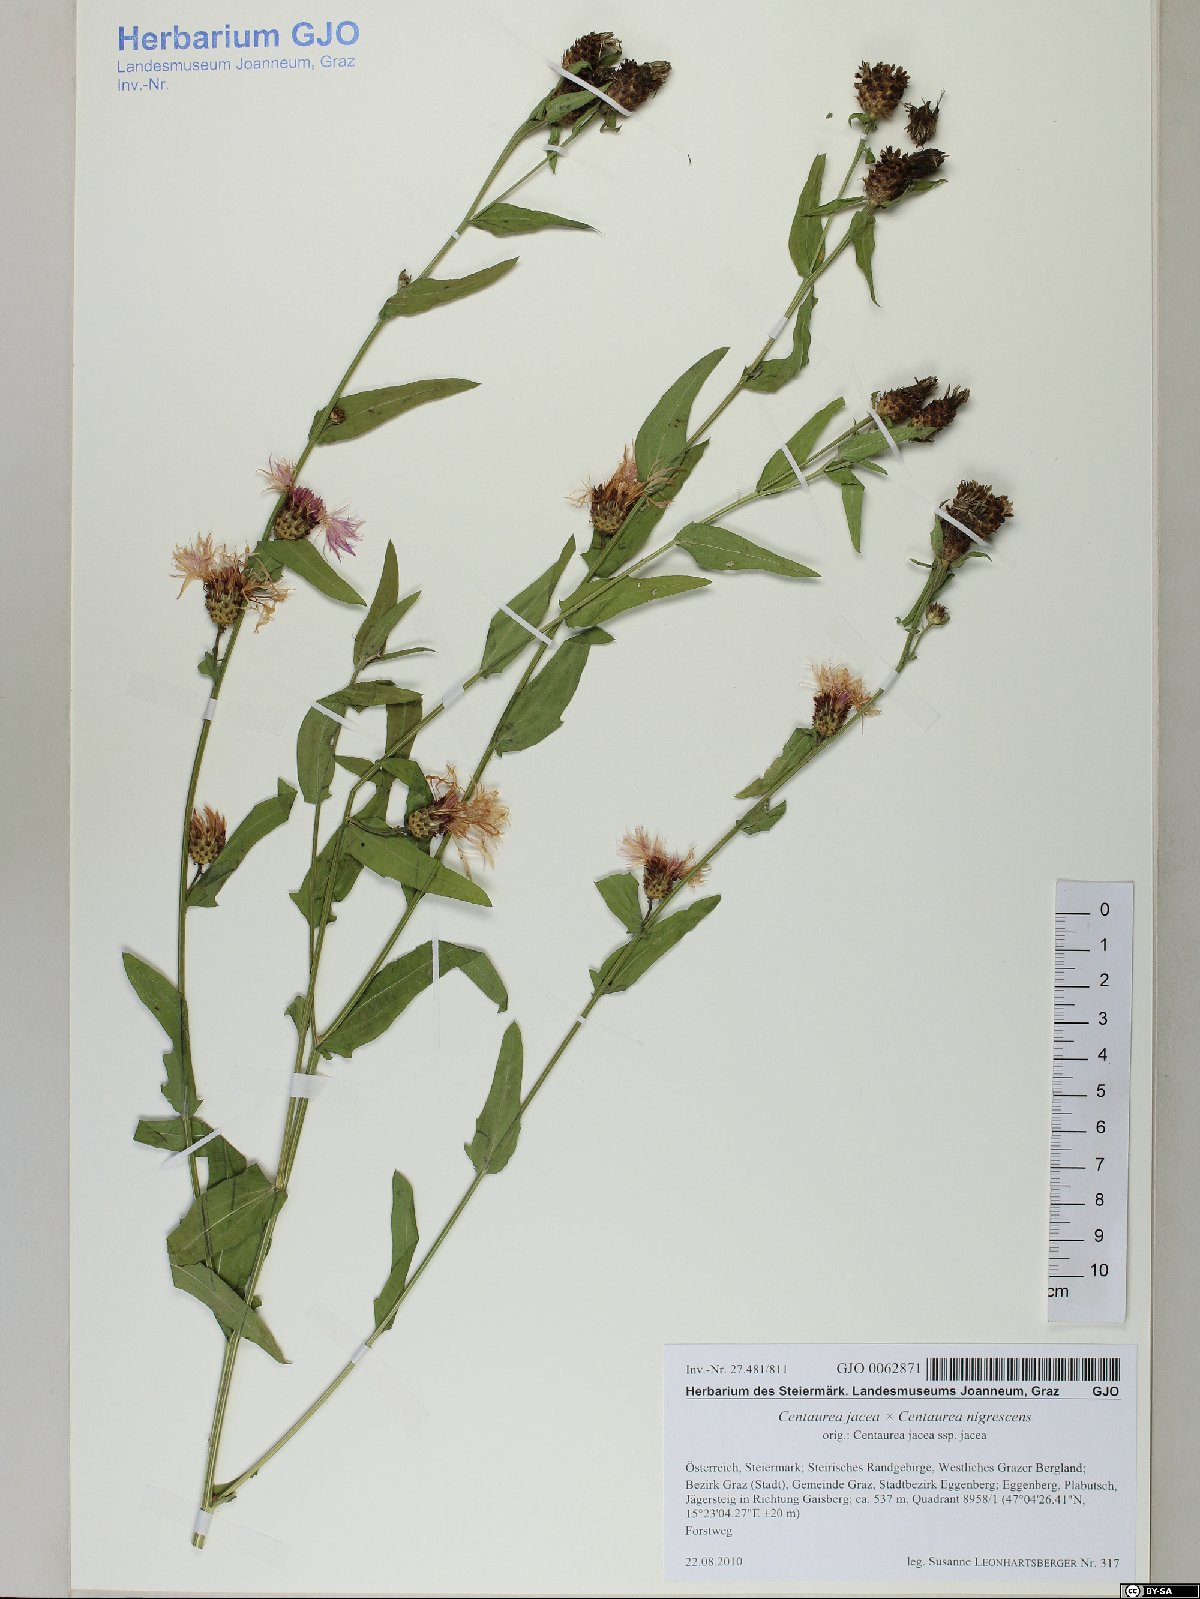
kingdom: Plantae
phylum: Tracheophyta
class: Magnoliopsida
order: Asterales
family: Asteraceae
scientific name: Asteraceae
